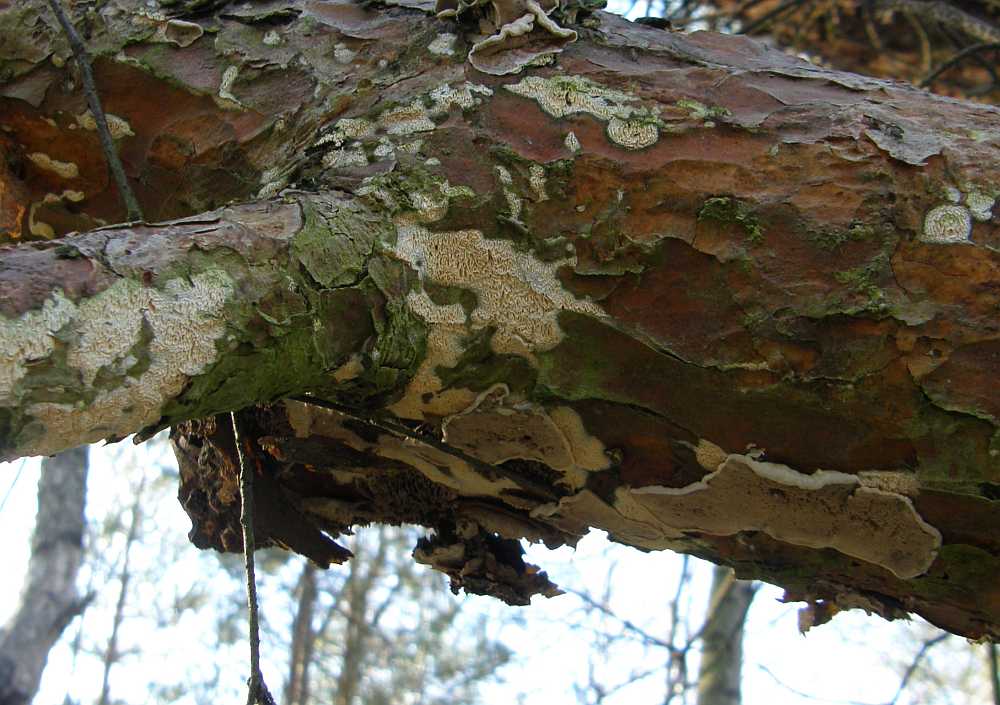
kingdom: Fungi
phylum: Basidiomycota
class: Agaricomycetes
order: Polyporales
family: Incrustoporiaceae
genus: Skeletocutis
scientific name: Skeletocutis carneogrisea
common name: rødgrå krystalporesvamp
